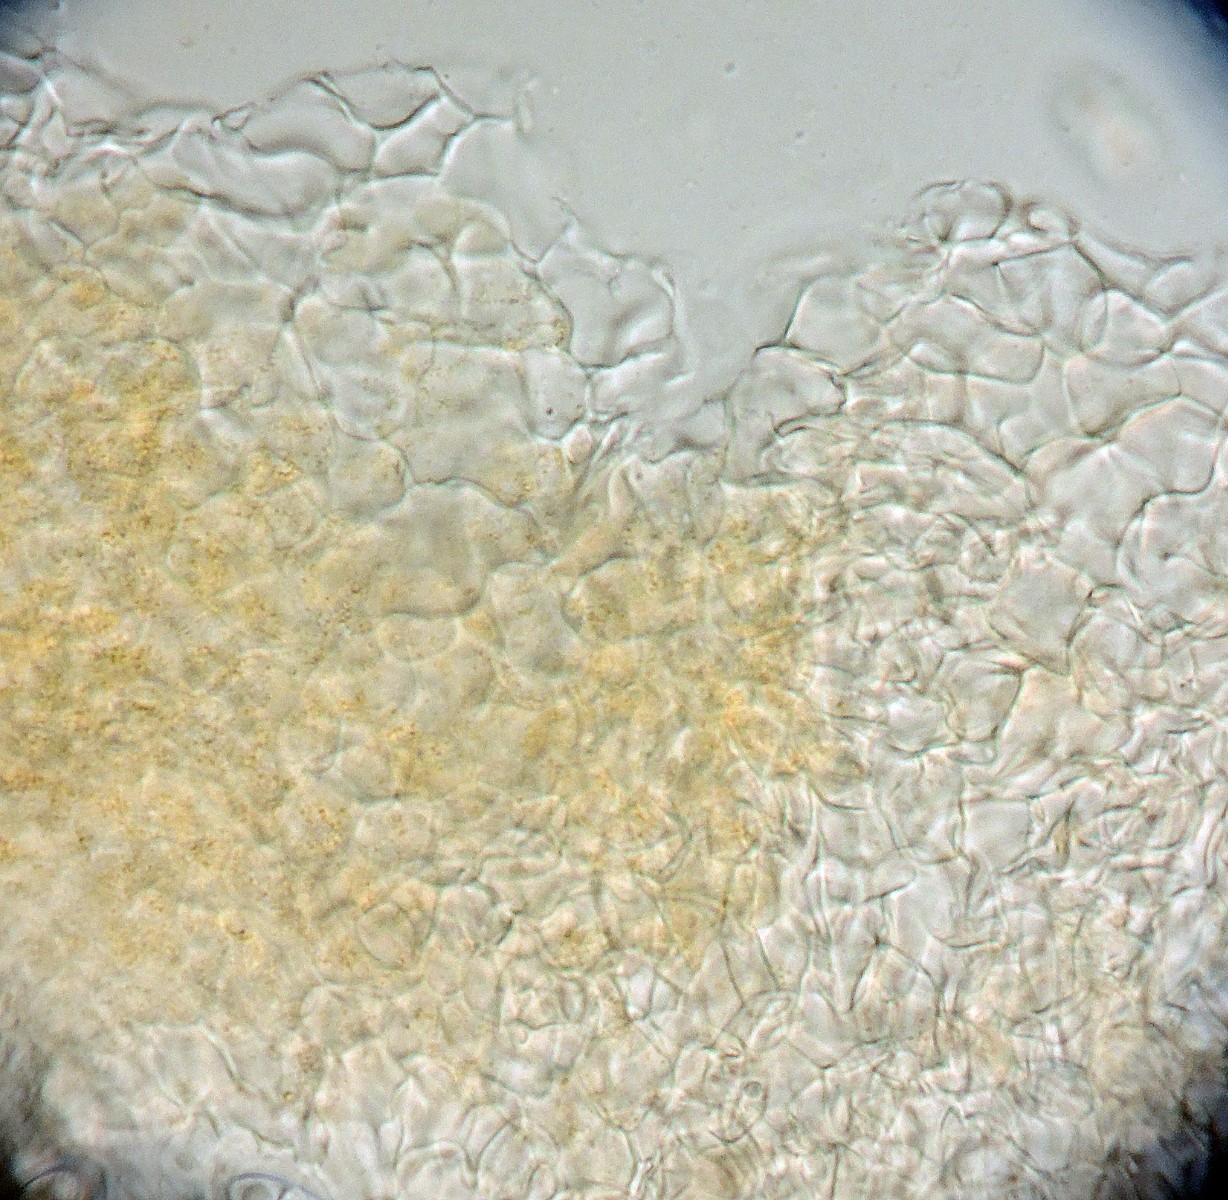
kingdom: Fungi
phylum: Ascomycota
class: Sordariomycetes
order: Hypocreales
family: Nectriaceae
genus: Hydropisphaera
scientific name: Hydropisphaera peziza
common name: skålformet gyldenkerne
